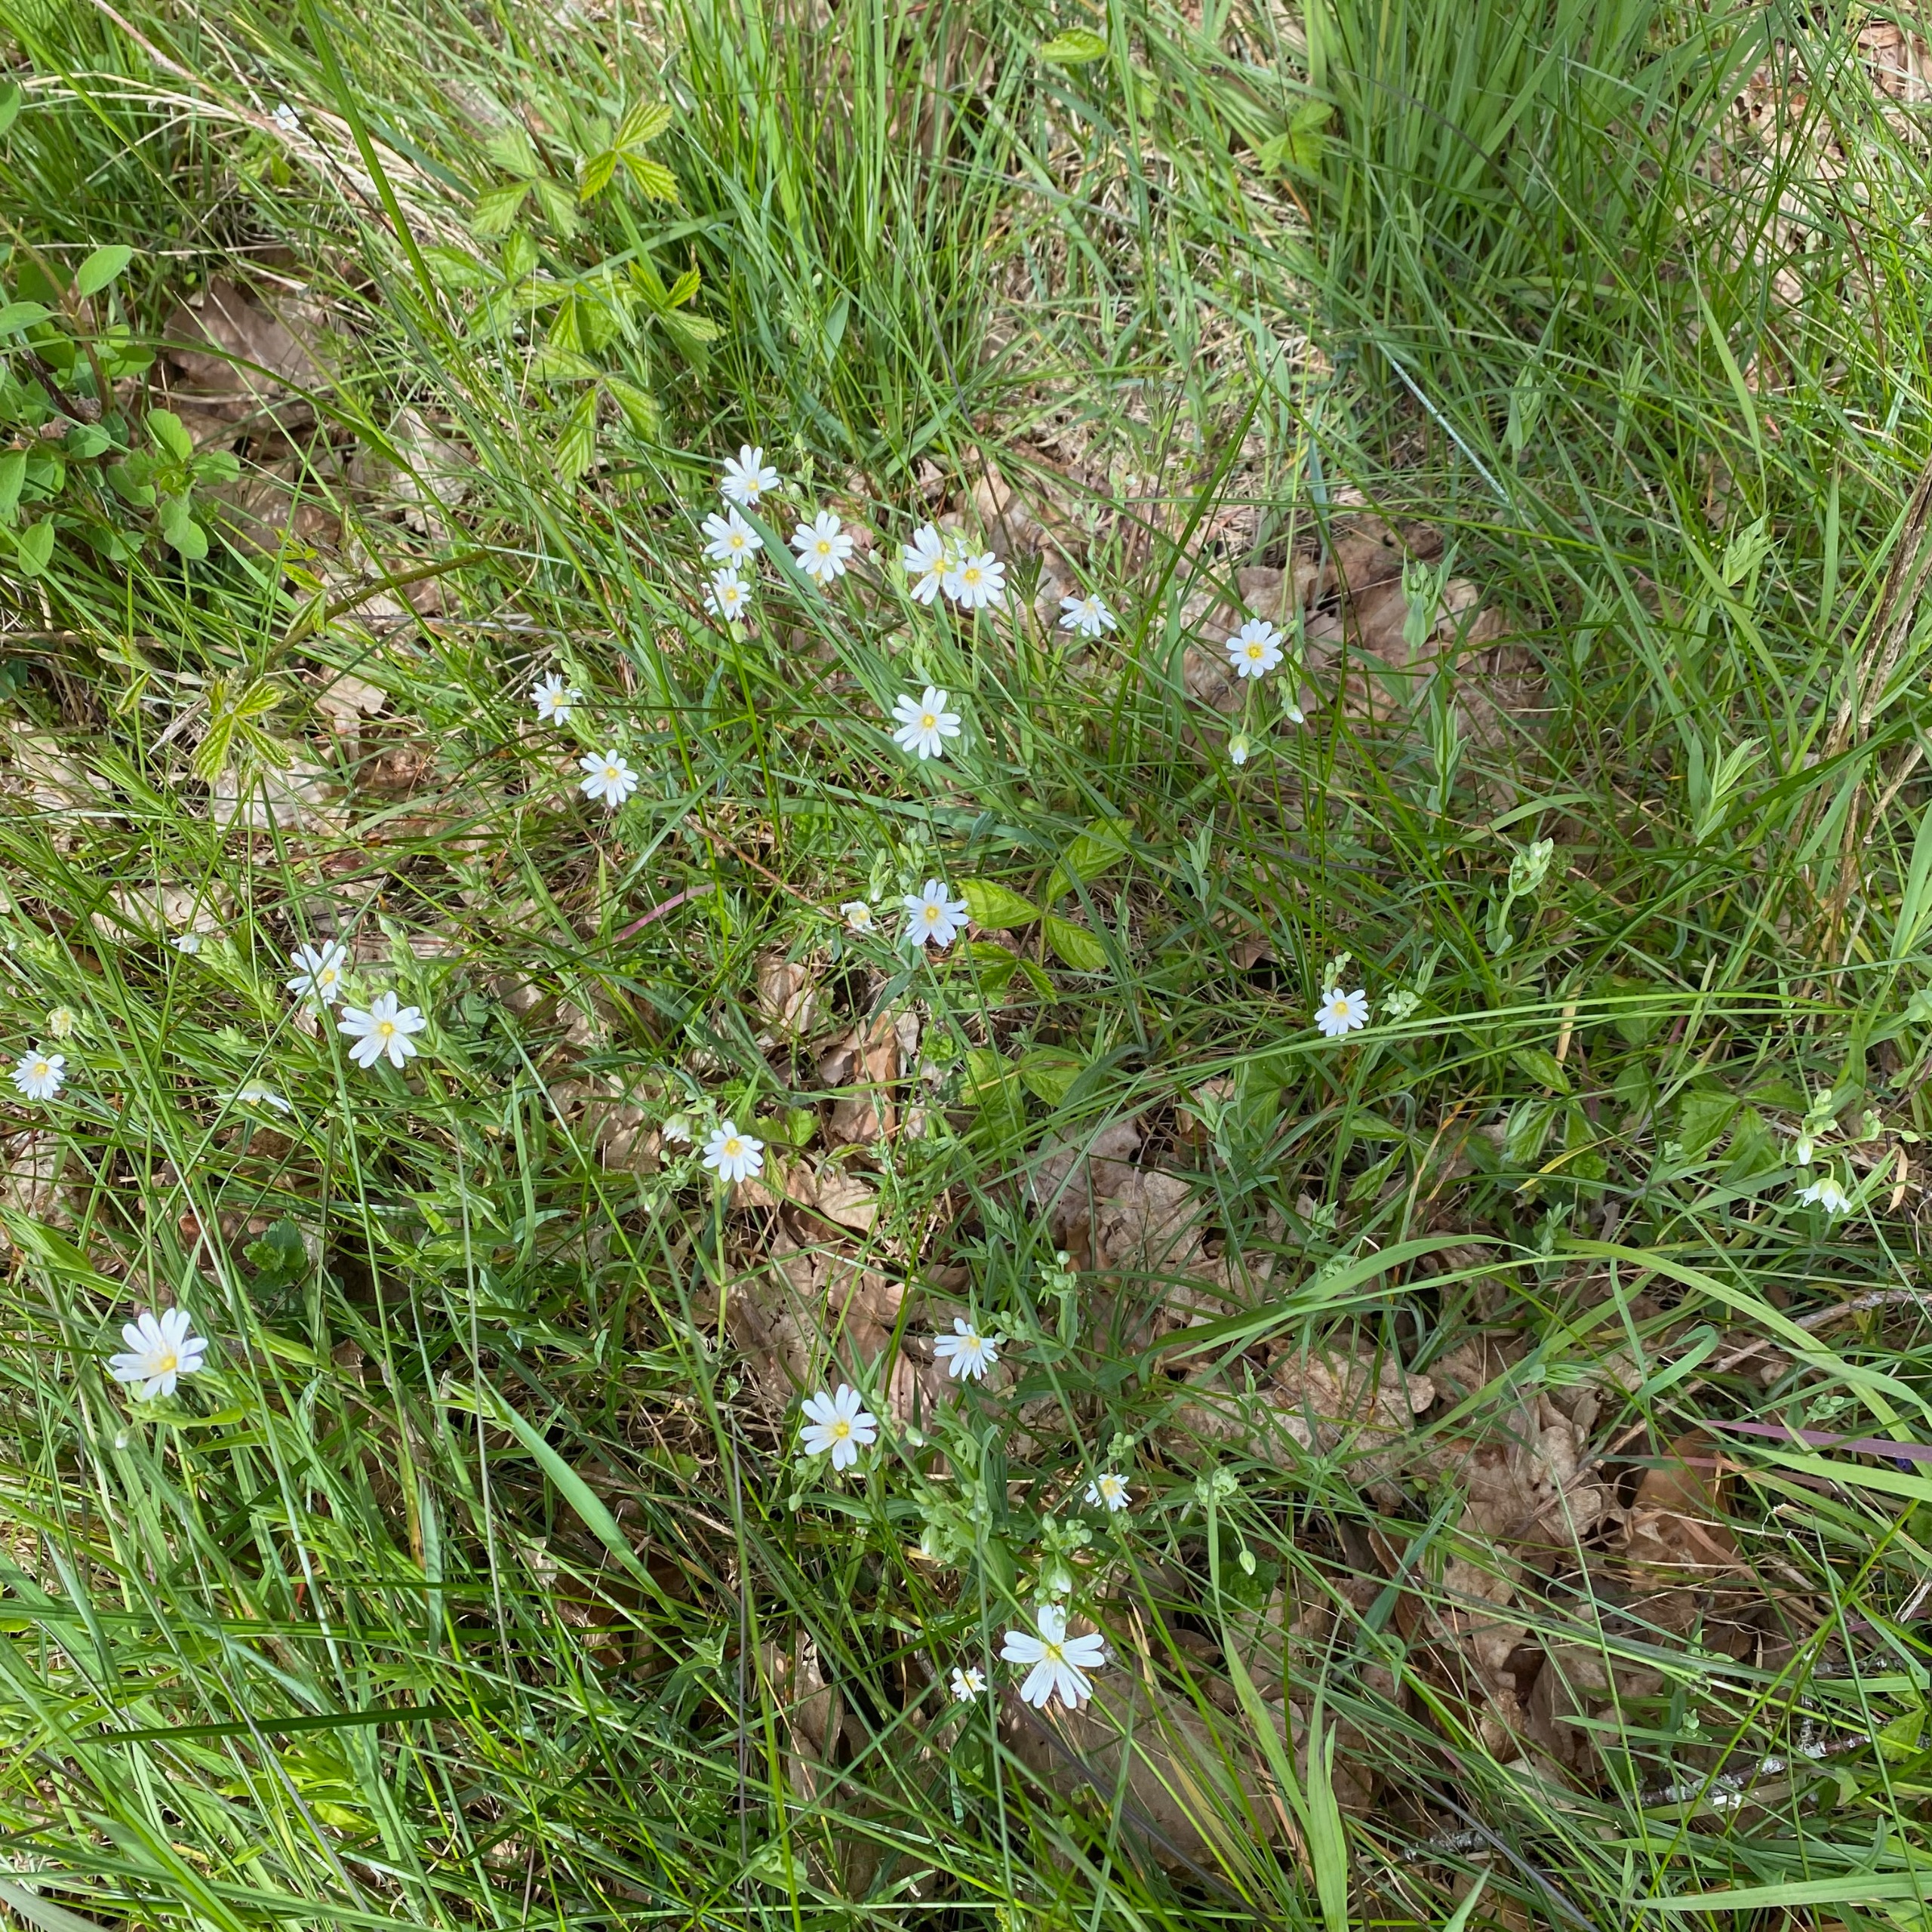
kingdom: Plantae
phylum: Tracheophyta
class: Magnoliopsida
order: Caryophyllales
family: Caryophyllaceae
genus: Rabelera
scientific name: Rabelera holostea
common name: Stor fladstjerne
